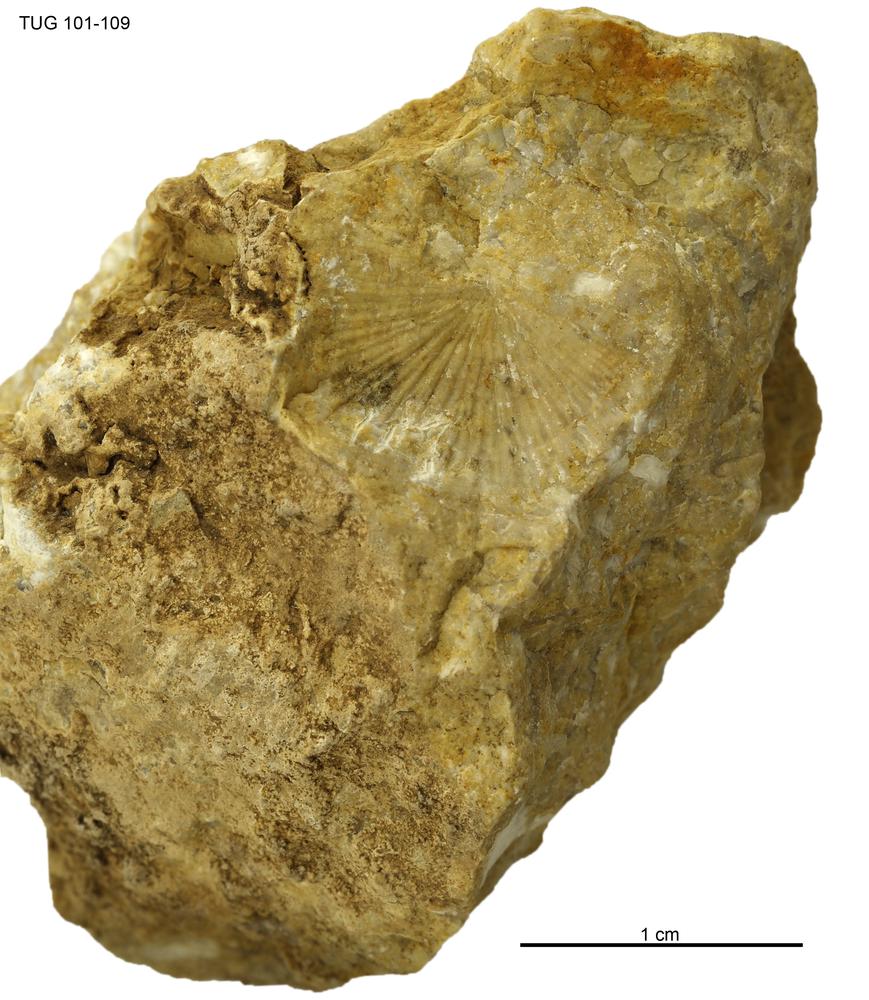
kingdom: Animalia
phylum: Brachiopoda
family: Strophomenidae
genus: Holtedahlina
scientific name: Holtedahlina
